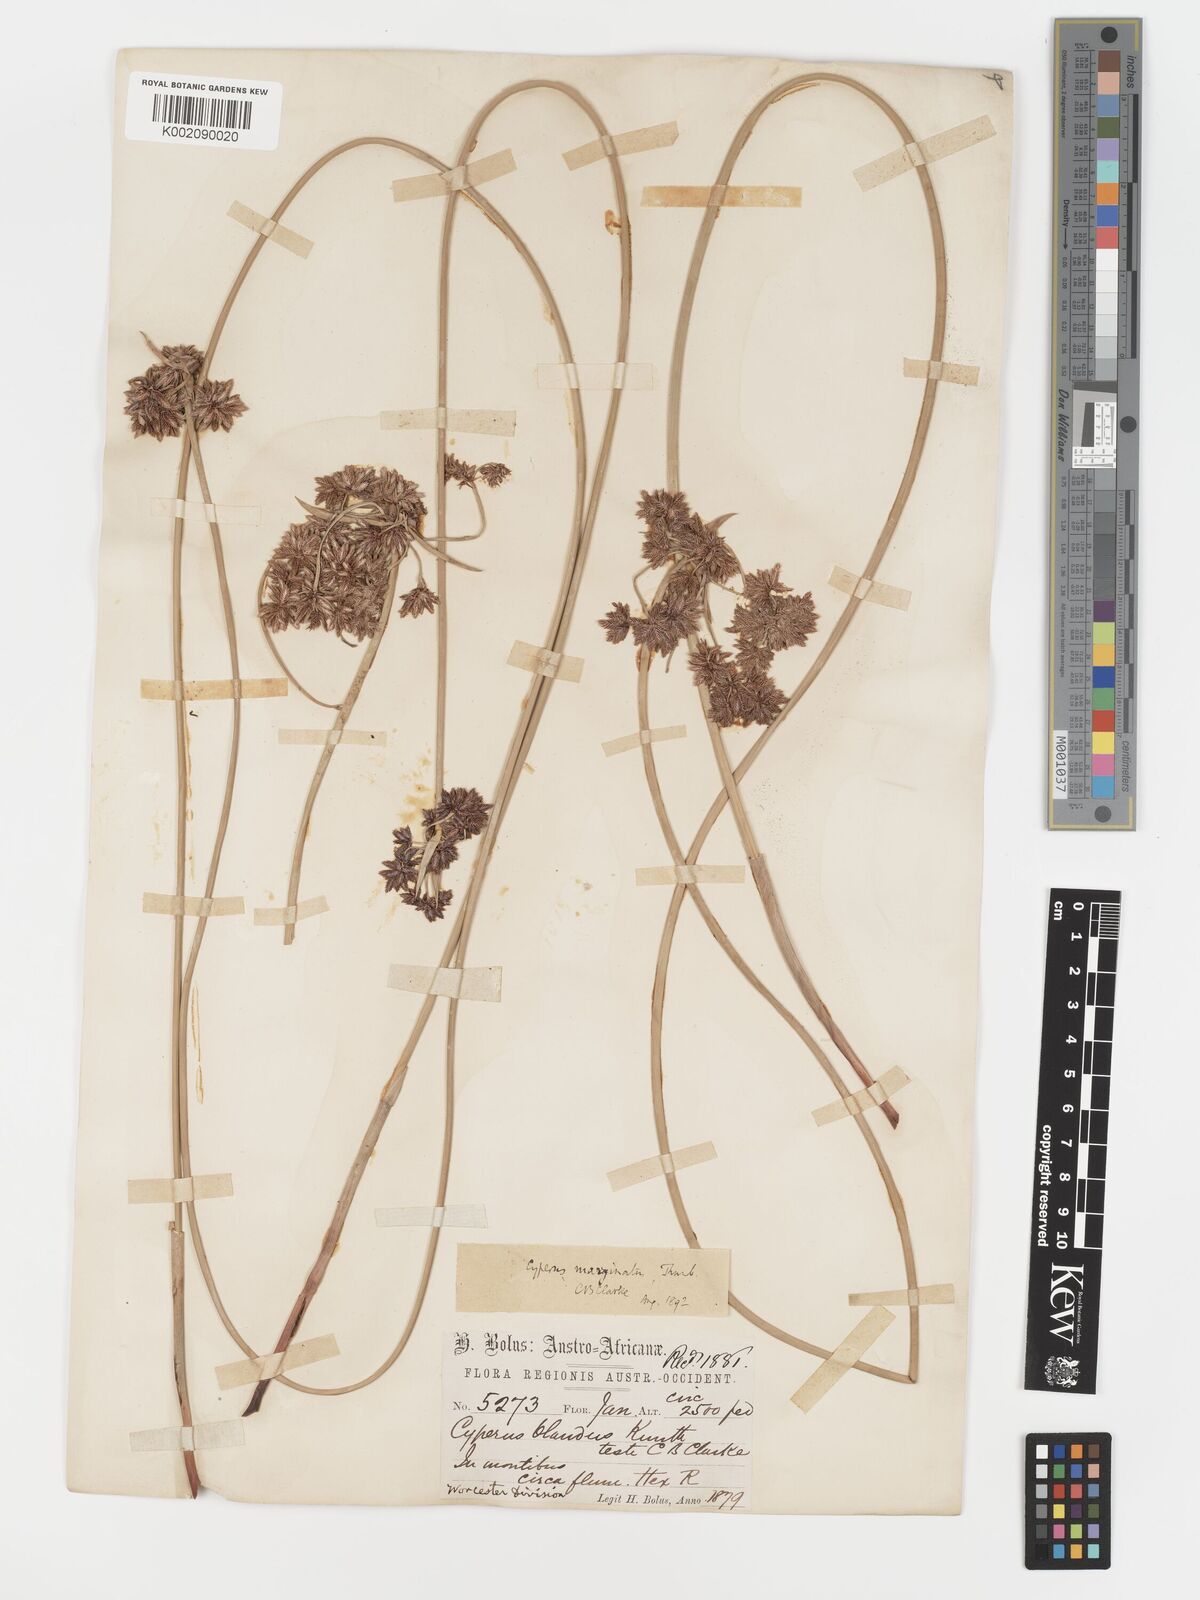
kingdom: Plantae
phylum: Tracheophyta
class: Liliopsida
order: Poales
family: Cyperaceae
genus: Cyperus
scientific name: Cyperus marginatus
